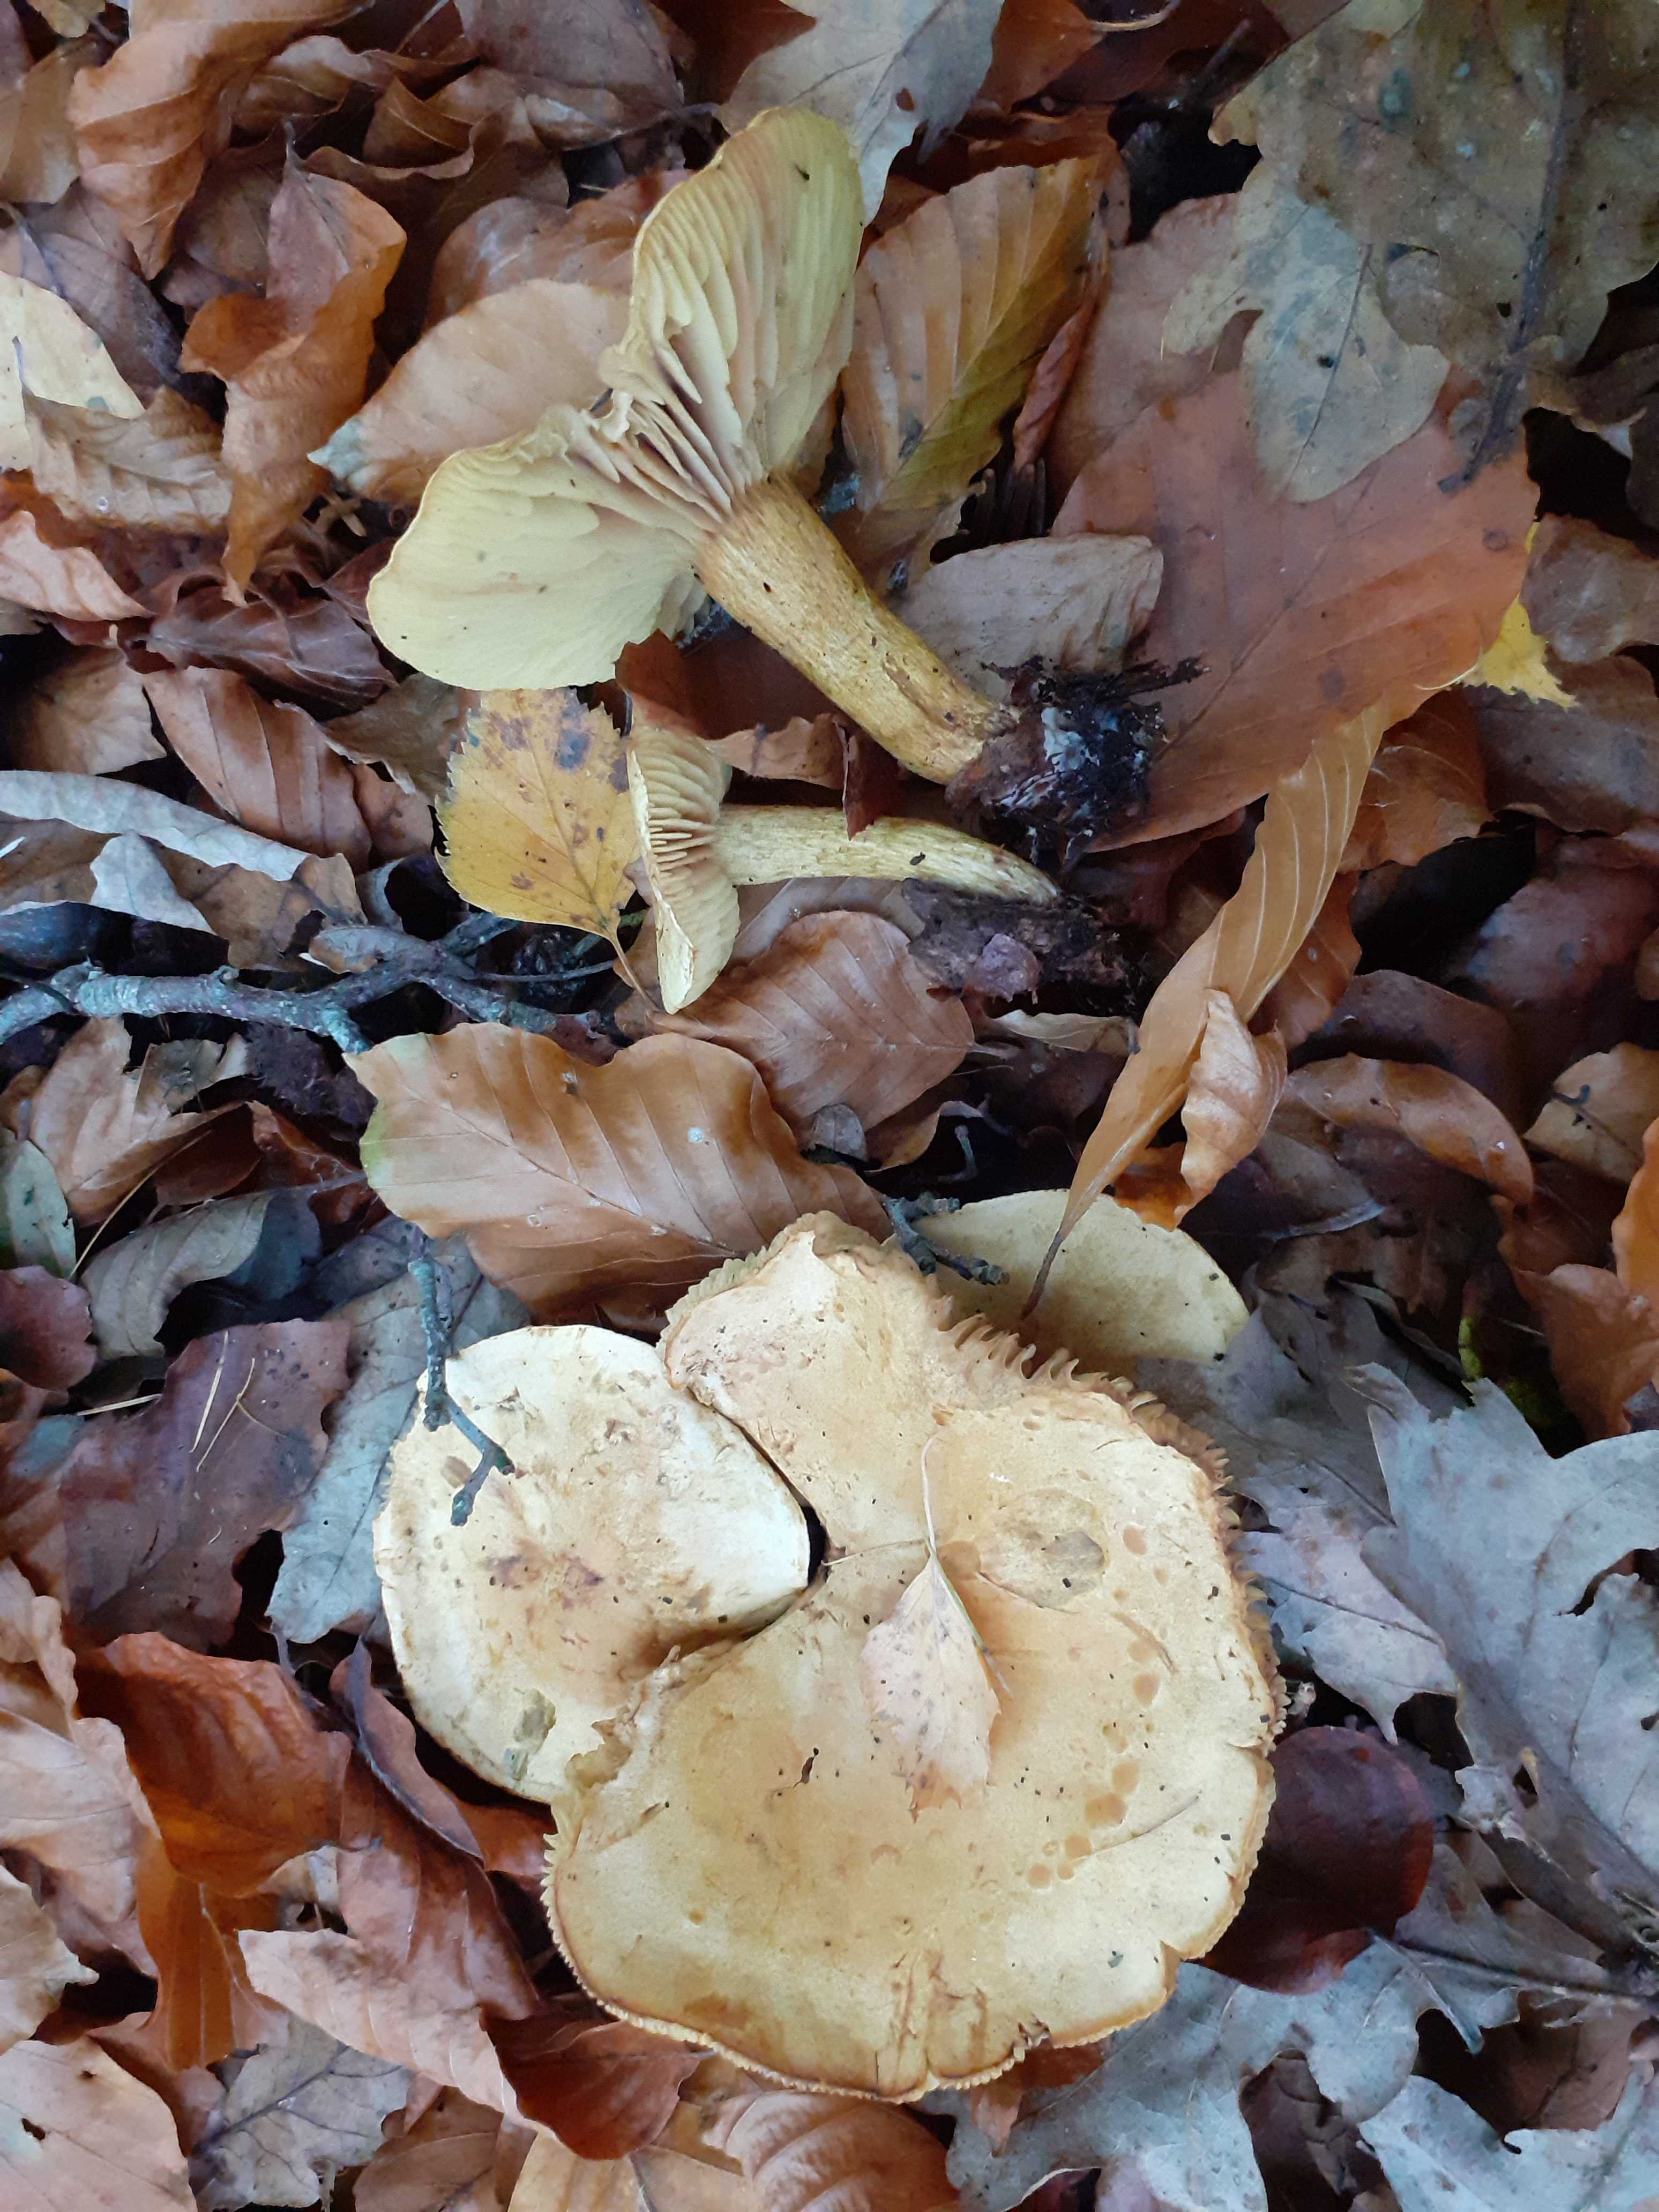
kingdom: Fungi
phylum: Basidiomycota
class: Agaricomycetes
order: Agaricales
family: Tricholomataceae
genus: Tricholoma
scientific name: Tricholoma sulphureum
